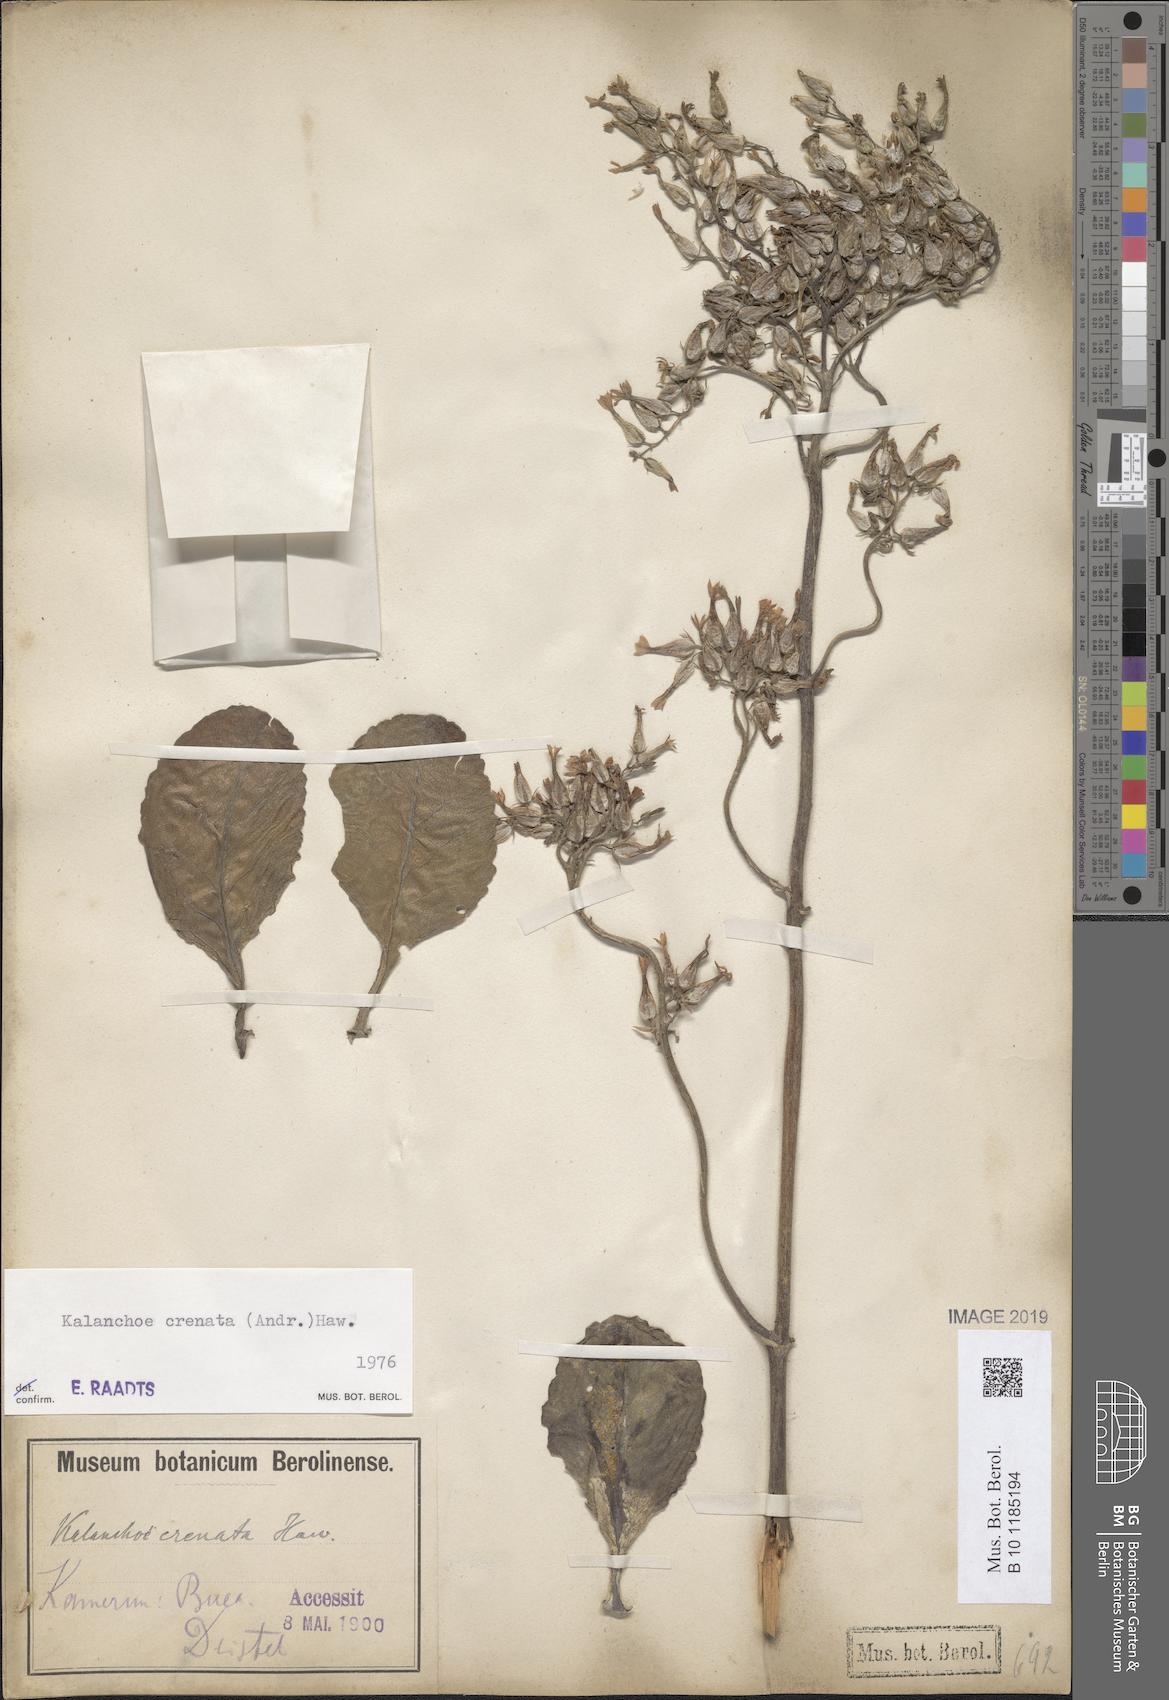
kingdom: Plantae
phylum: Tracheophyta
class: Magnoliopsida
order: Saxifragales
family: Crassulaceae
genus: Kalanchoe
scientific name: Kalanchoe crenata
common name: Neverdie
